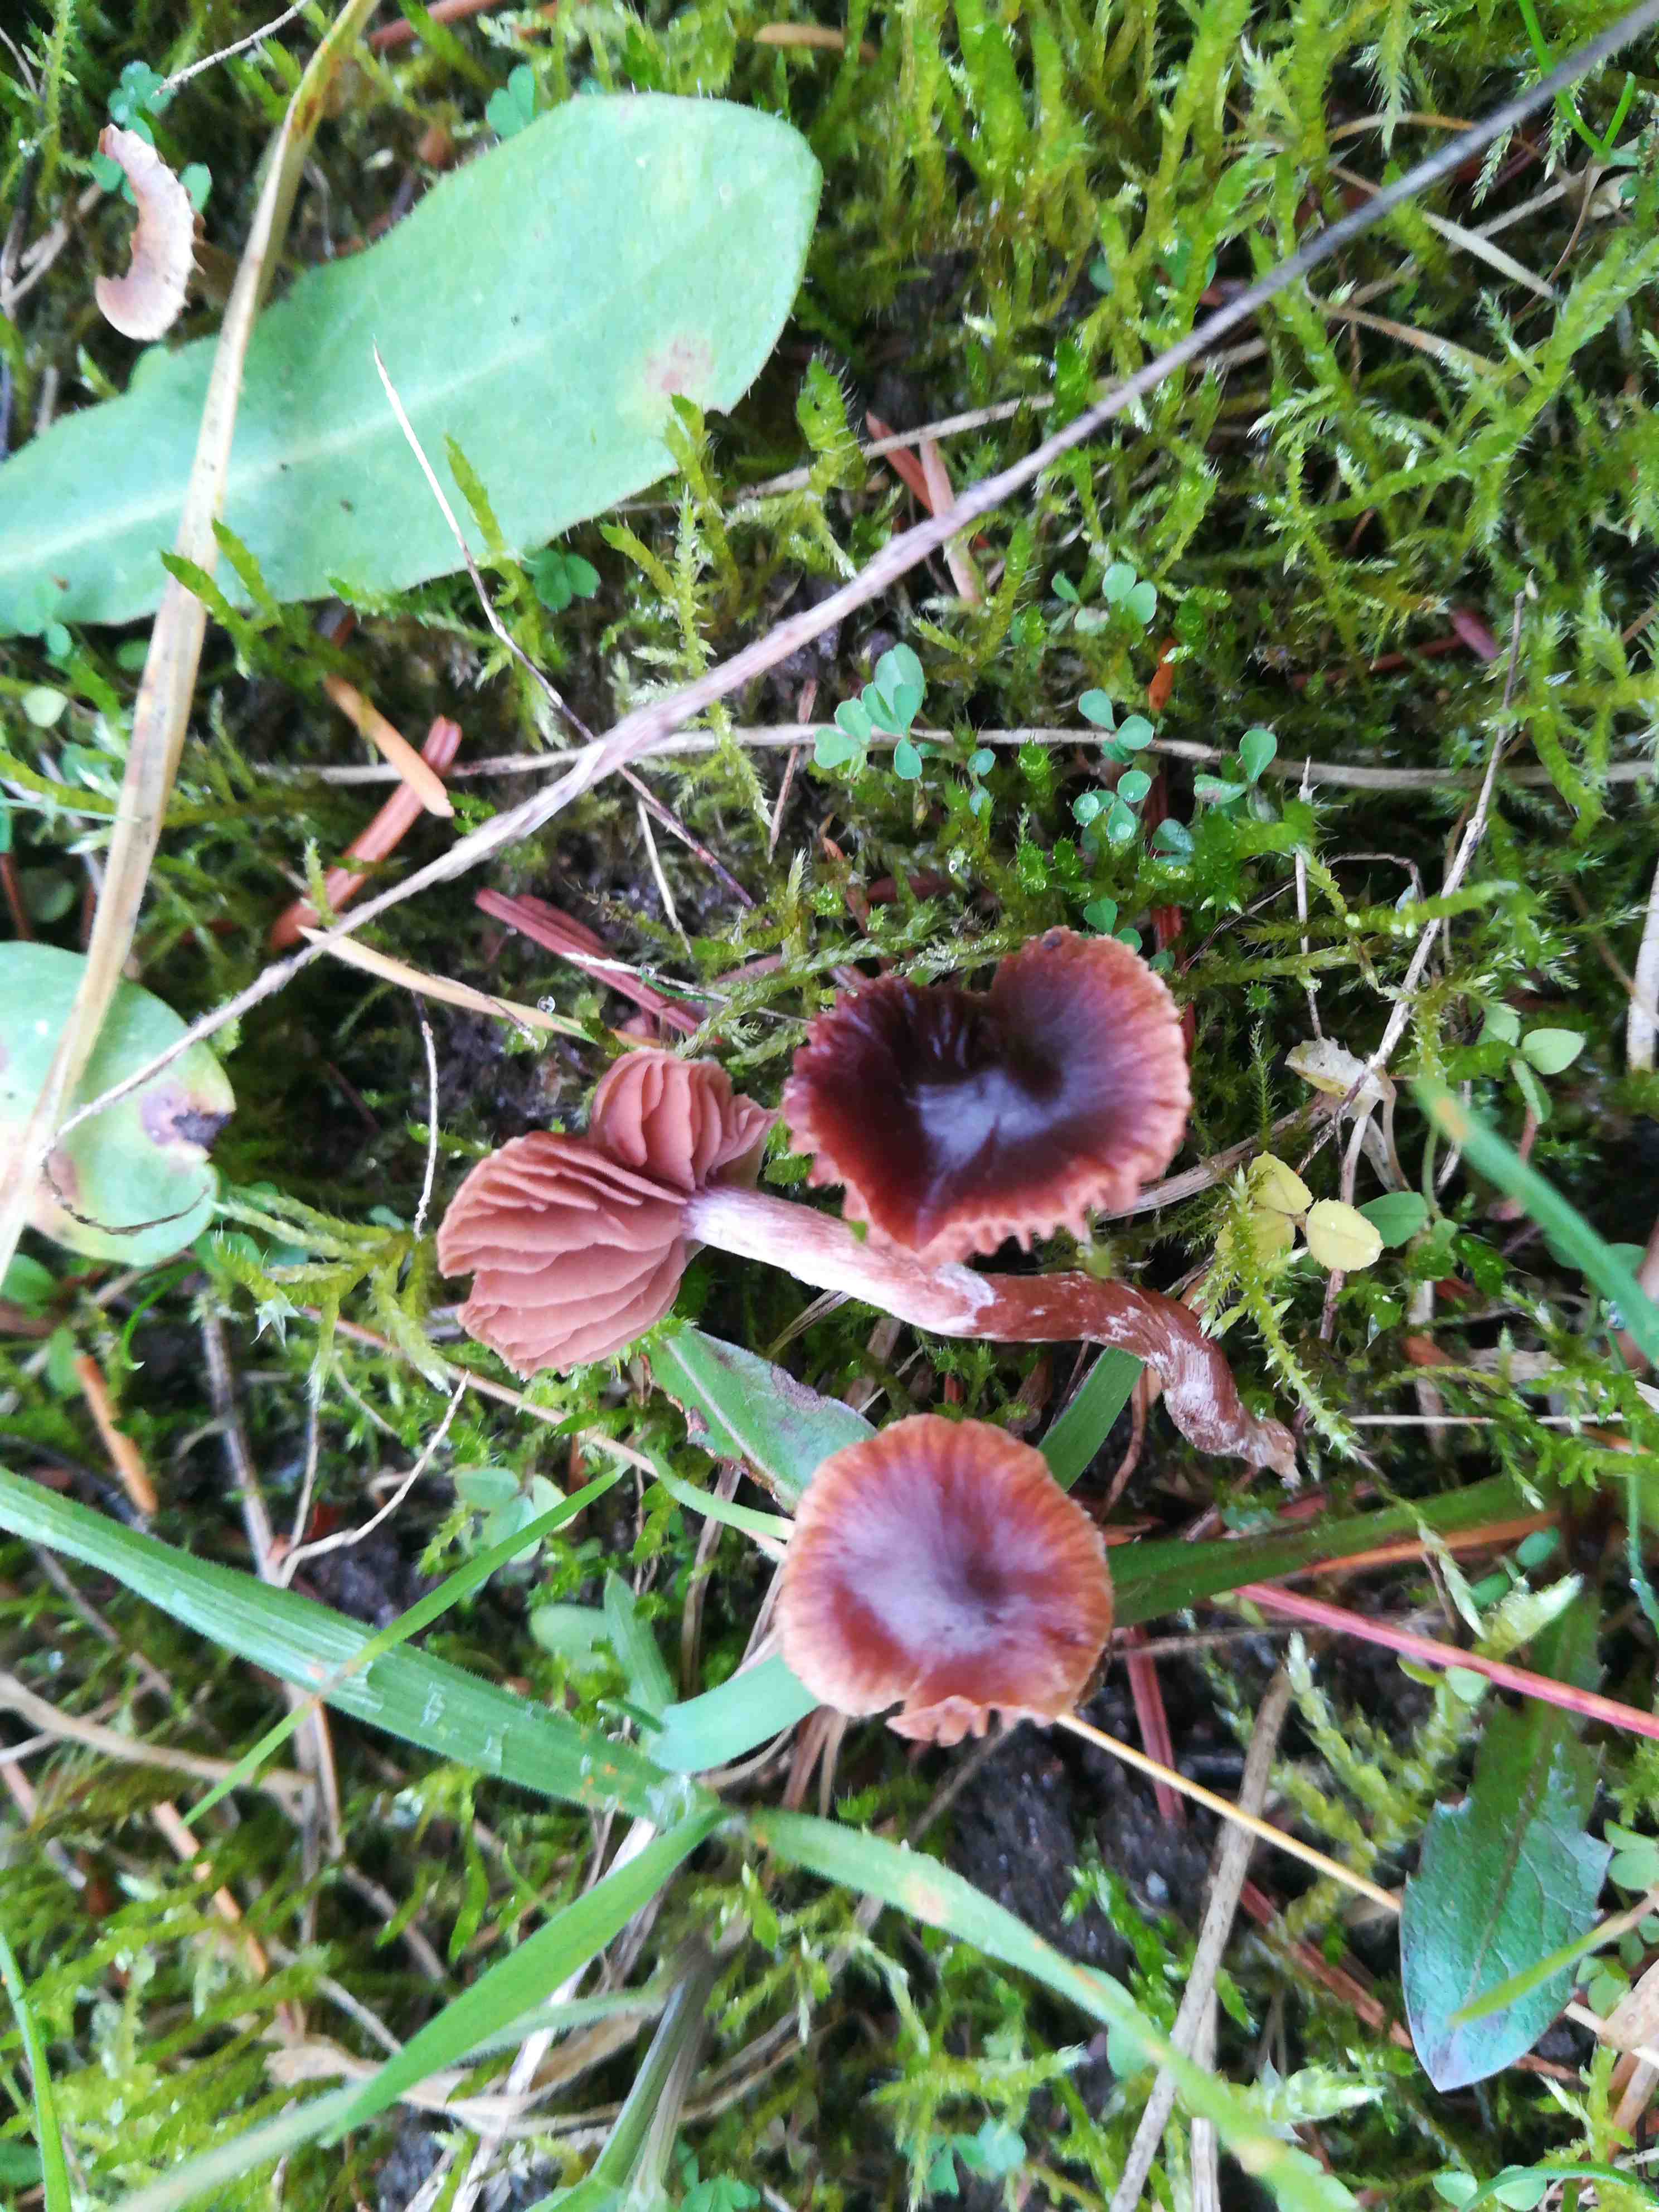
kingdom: Fungi
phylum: Basidiomycota
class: Agaricomycetes
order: Agaricales
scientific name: Agaricales
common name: champignonordenen
